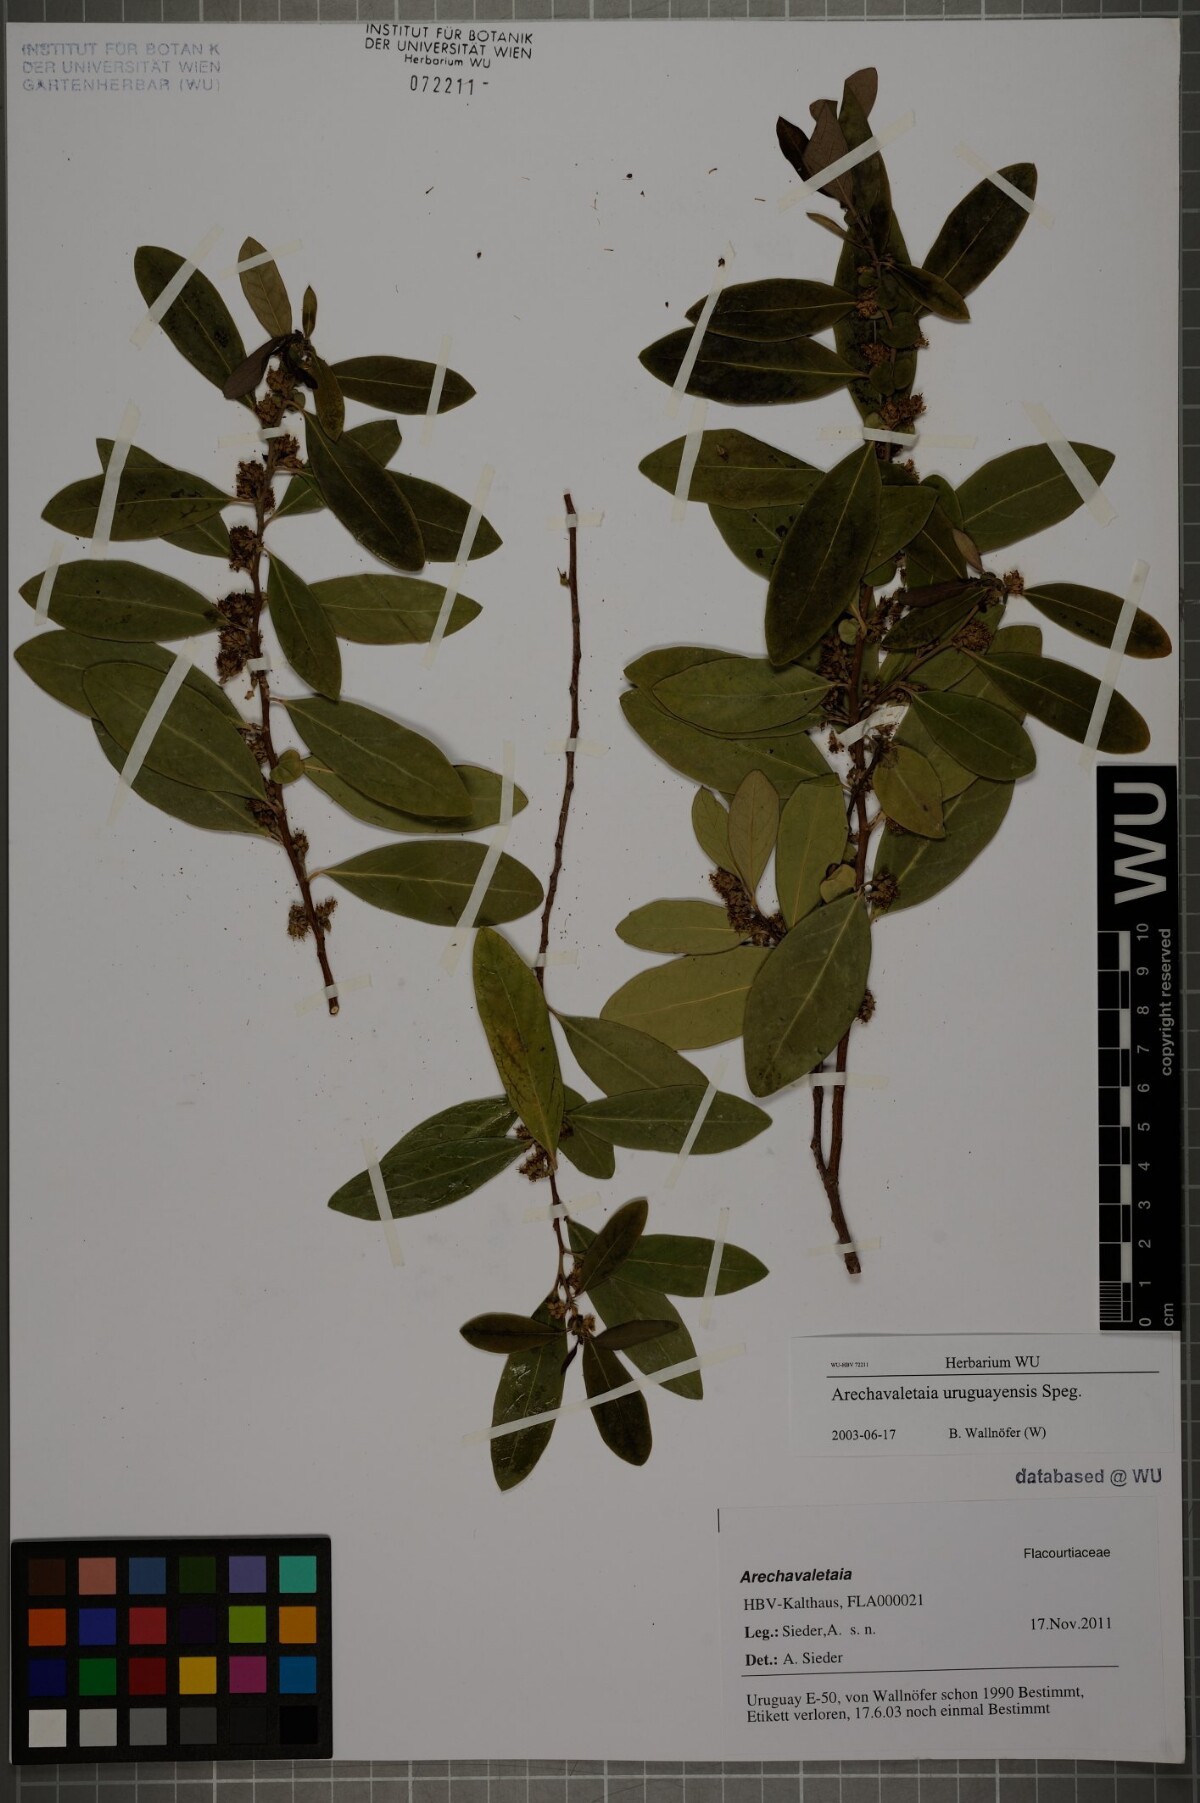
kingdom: Plantae
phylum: Tracheophyta
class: Magnoliopsida
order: Malpighiales
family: Salicaceae
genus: Azara
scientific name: Azara uruguayensis
